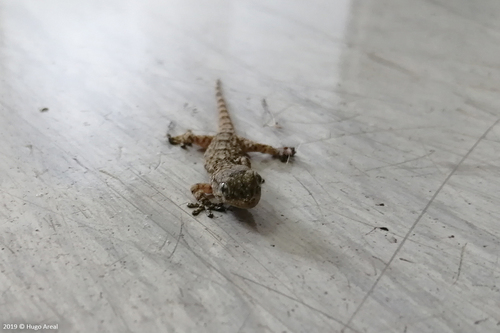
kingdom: Animalia
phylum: Chordata
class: Squamata
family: Phyllodactylidae
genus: Tarentola
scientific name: Tarentola mauritanica
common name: Moorish gecko
